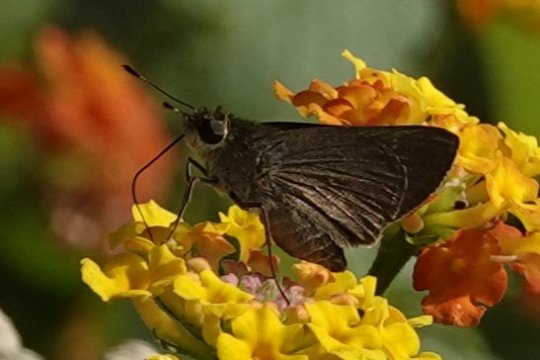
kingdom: Animalia
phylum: Arthropoda
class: Insecta
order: Lepidoptera
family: Hesperiidae
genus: Carystoides
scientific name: Carystoides cathaea
